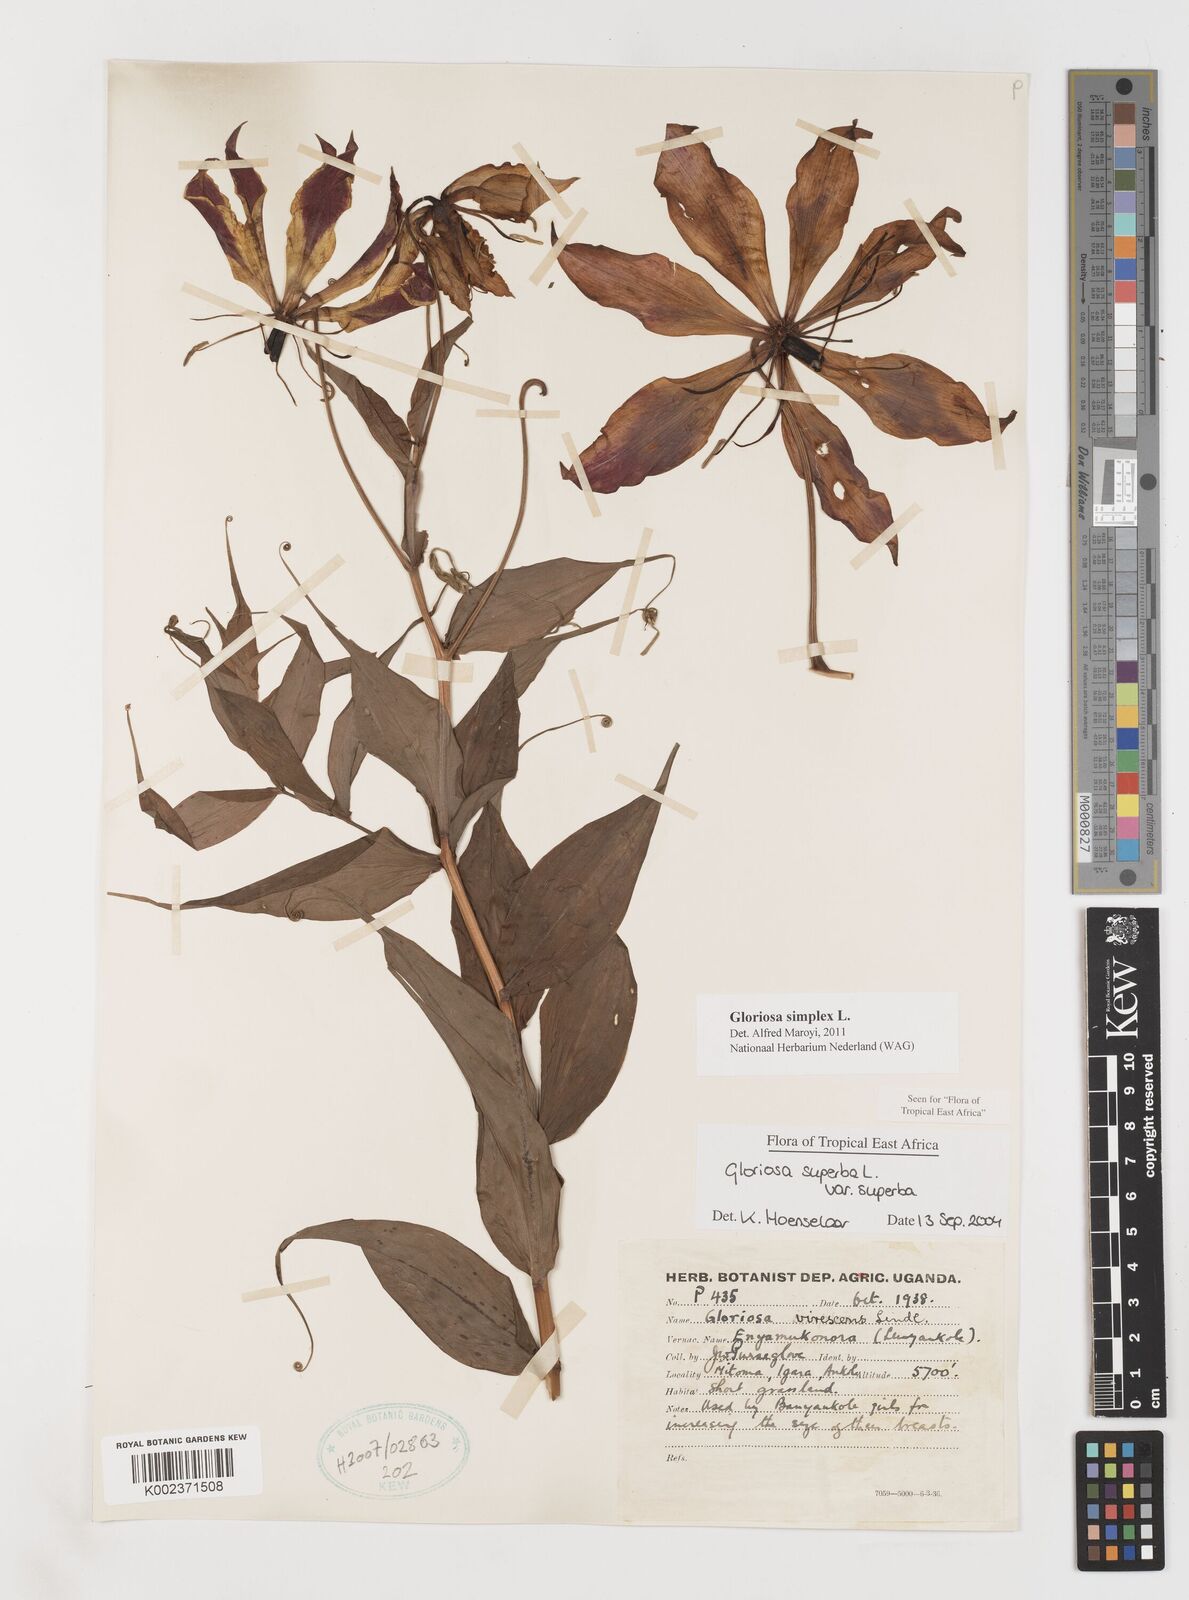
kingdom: Plantae
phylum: Tracheophyta
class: Liliopsida
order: Liliales
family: Colchicaceae
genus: Gloriosa
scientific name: Gloriosa simplex
